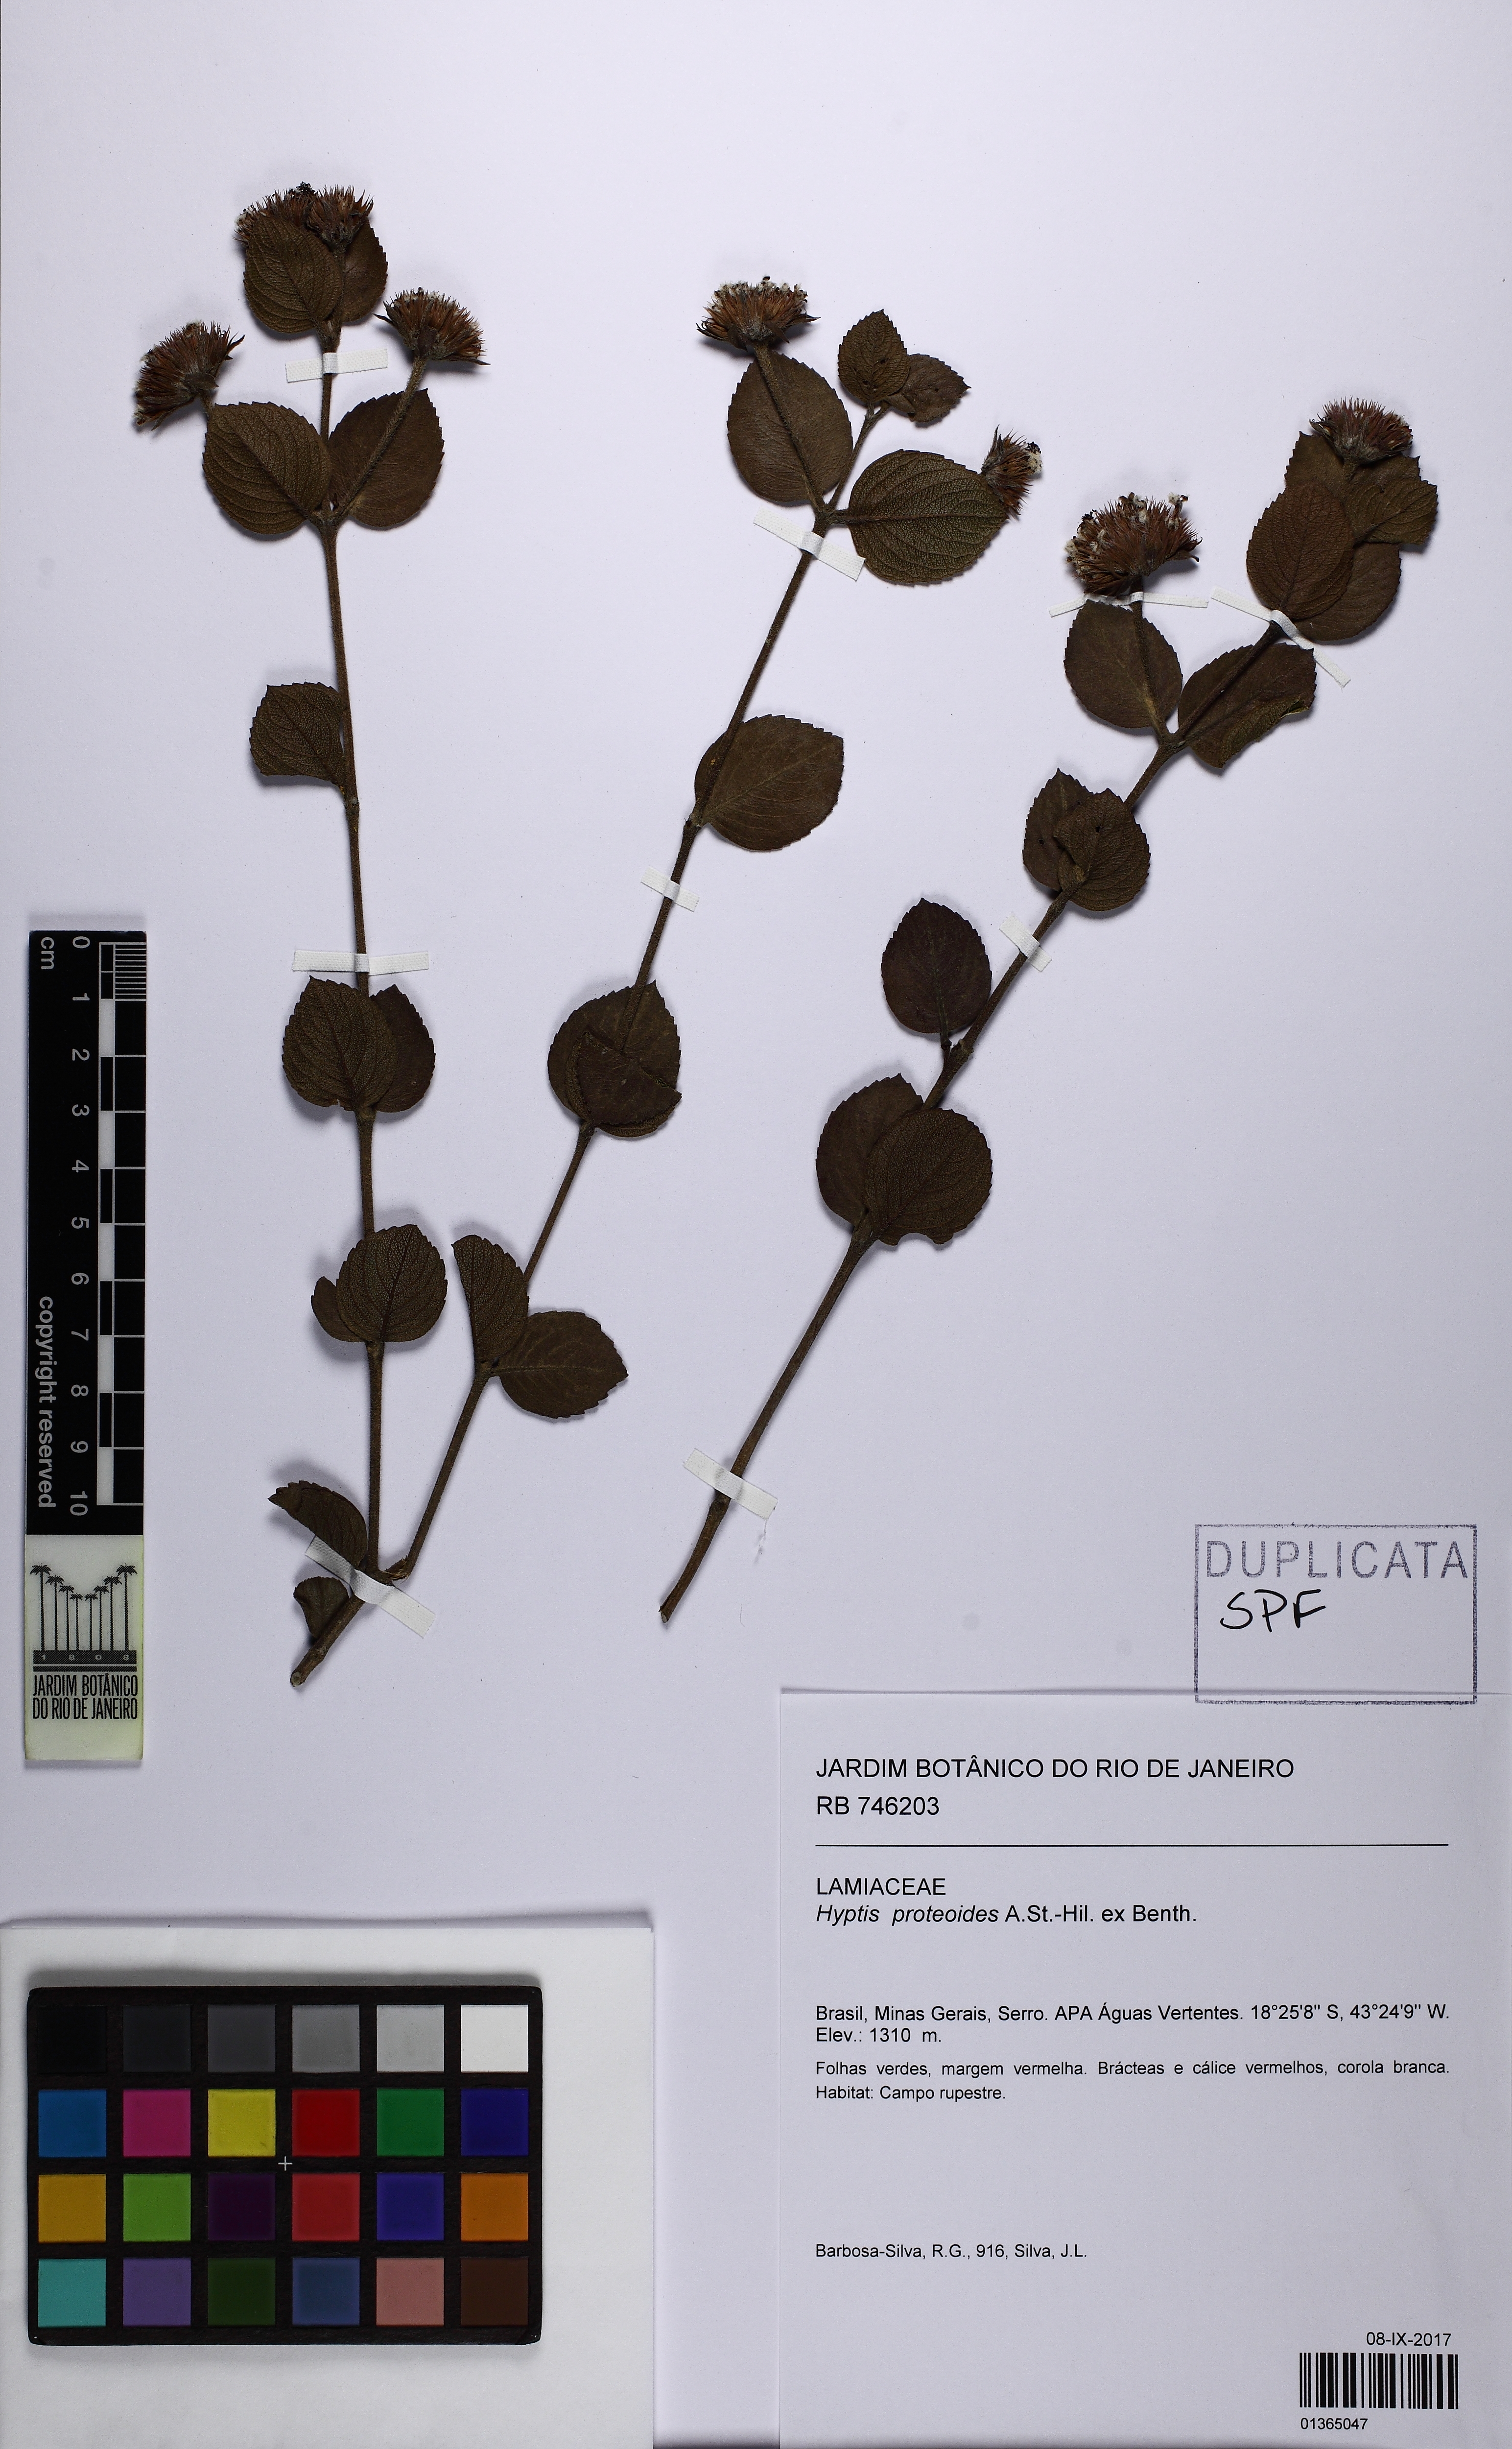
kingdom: Plantae
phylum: Tracheophyta
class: Magnoliopsida
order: Lamiales
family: Lamiaceae
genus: Hyptis
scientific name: Hyptis proteoides
